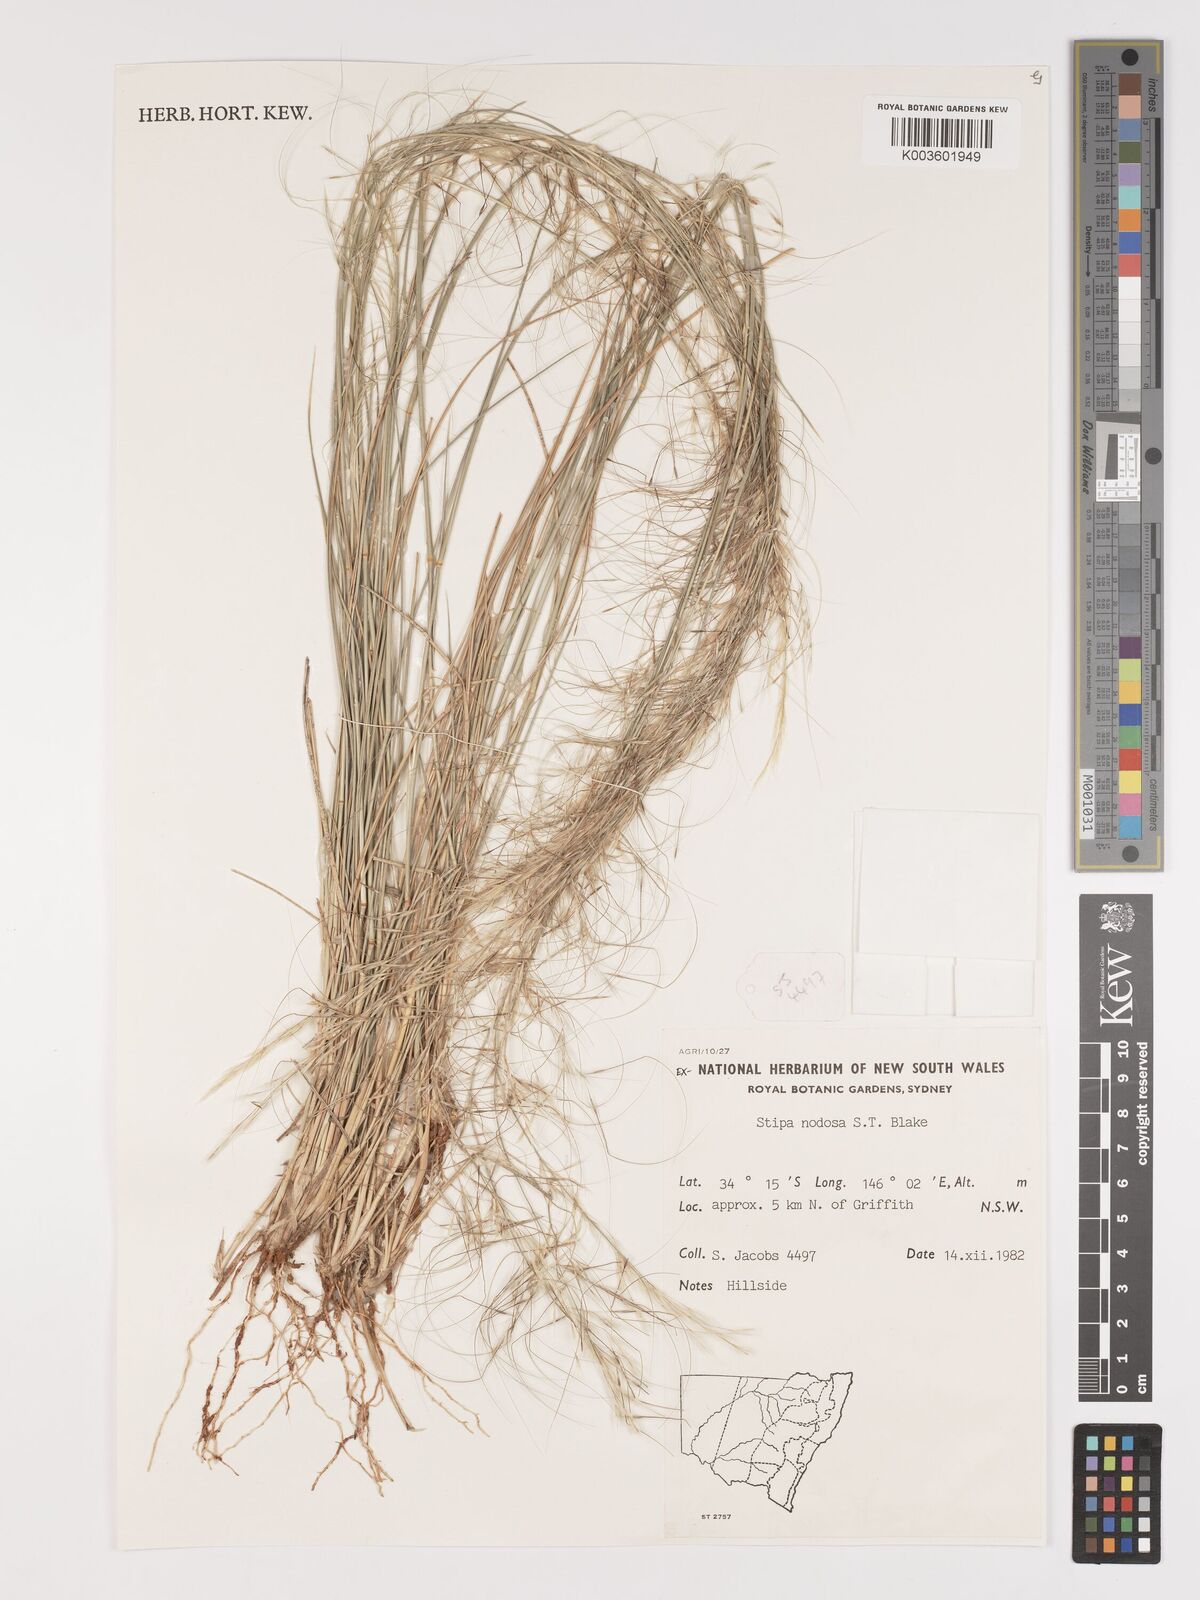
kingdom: Plantae
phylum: Tracheophyta
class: Liliopsida
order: Poales
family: Poaceae
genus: Austrostipa
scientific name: Austrostipa nodosa
